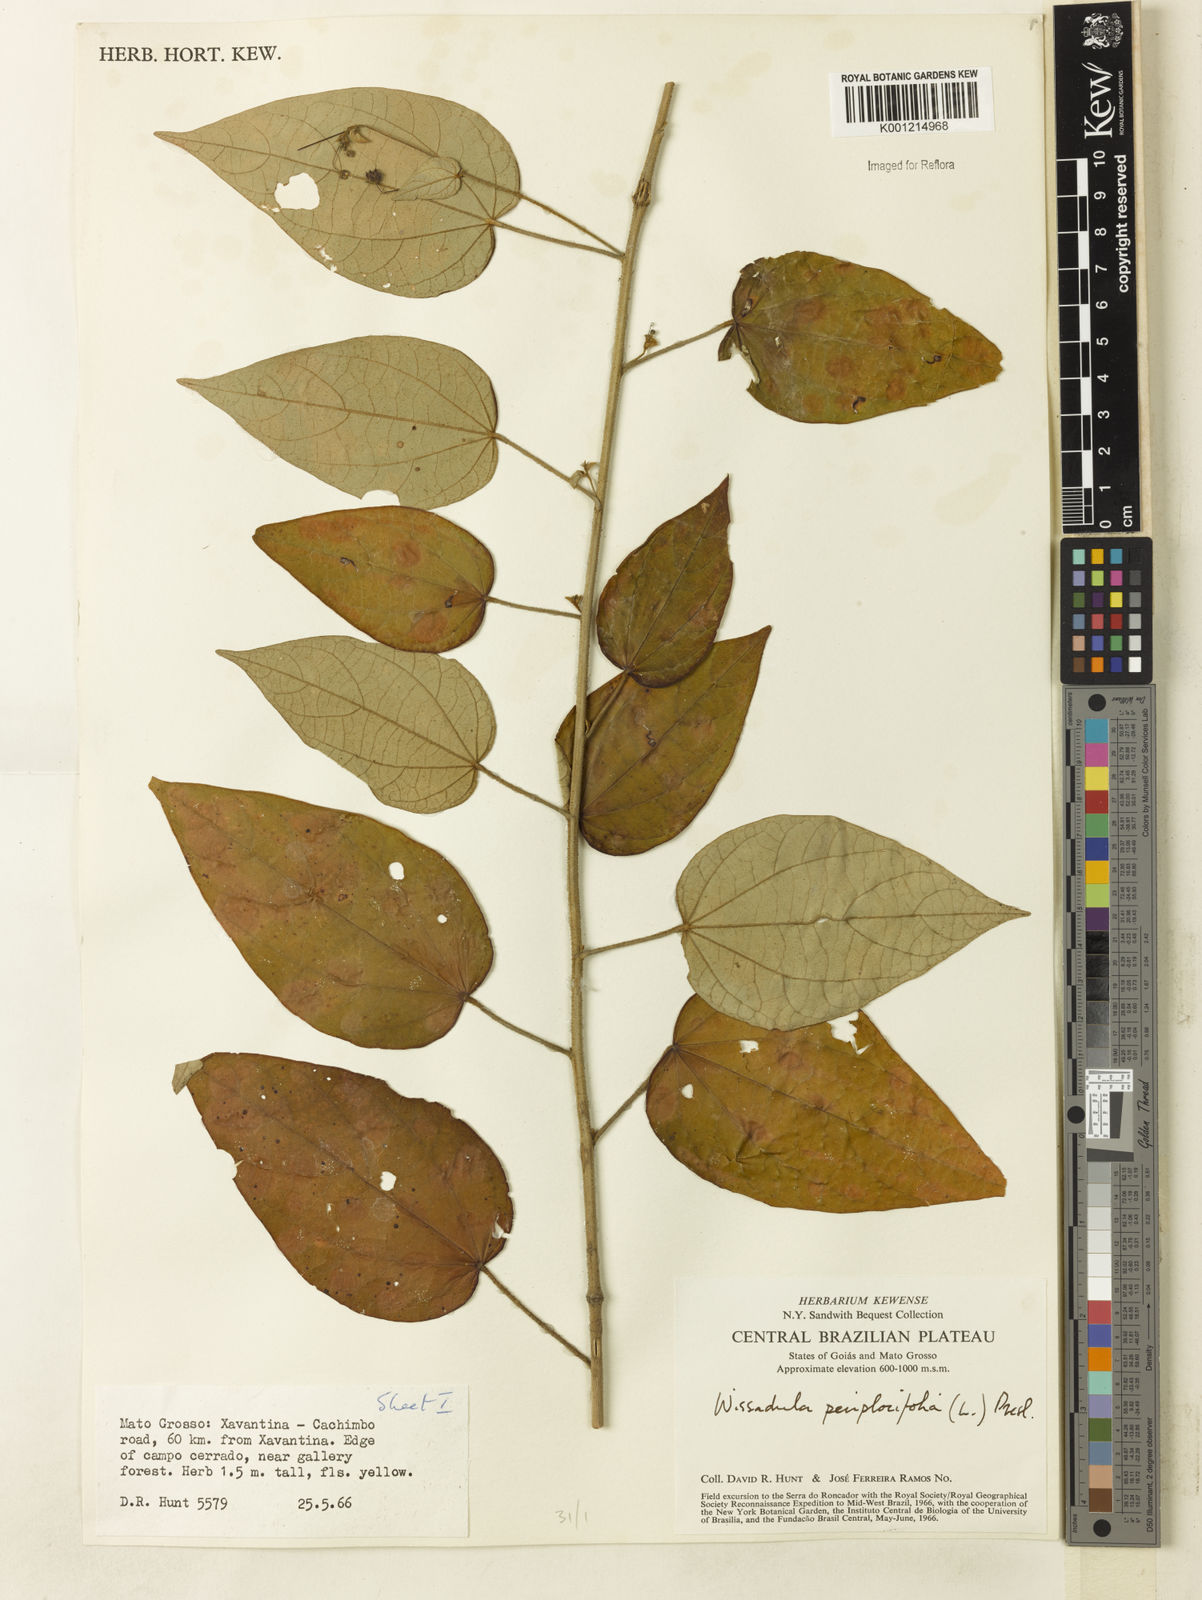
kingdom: Plantae
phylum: Tracheophyta
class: Magnoliopsida
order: Malvales
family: Malvaceae
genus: Wissadula
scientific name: Wissadula periplocifolia
